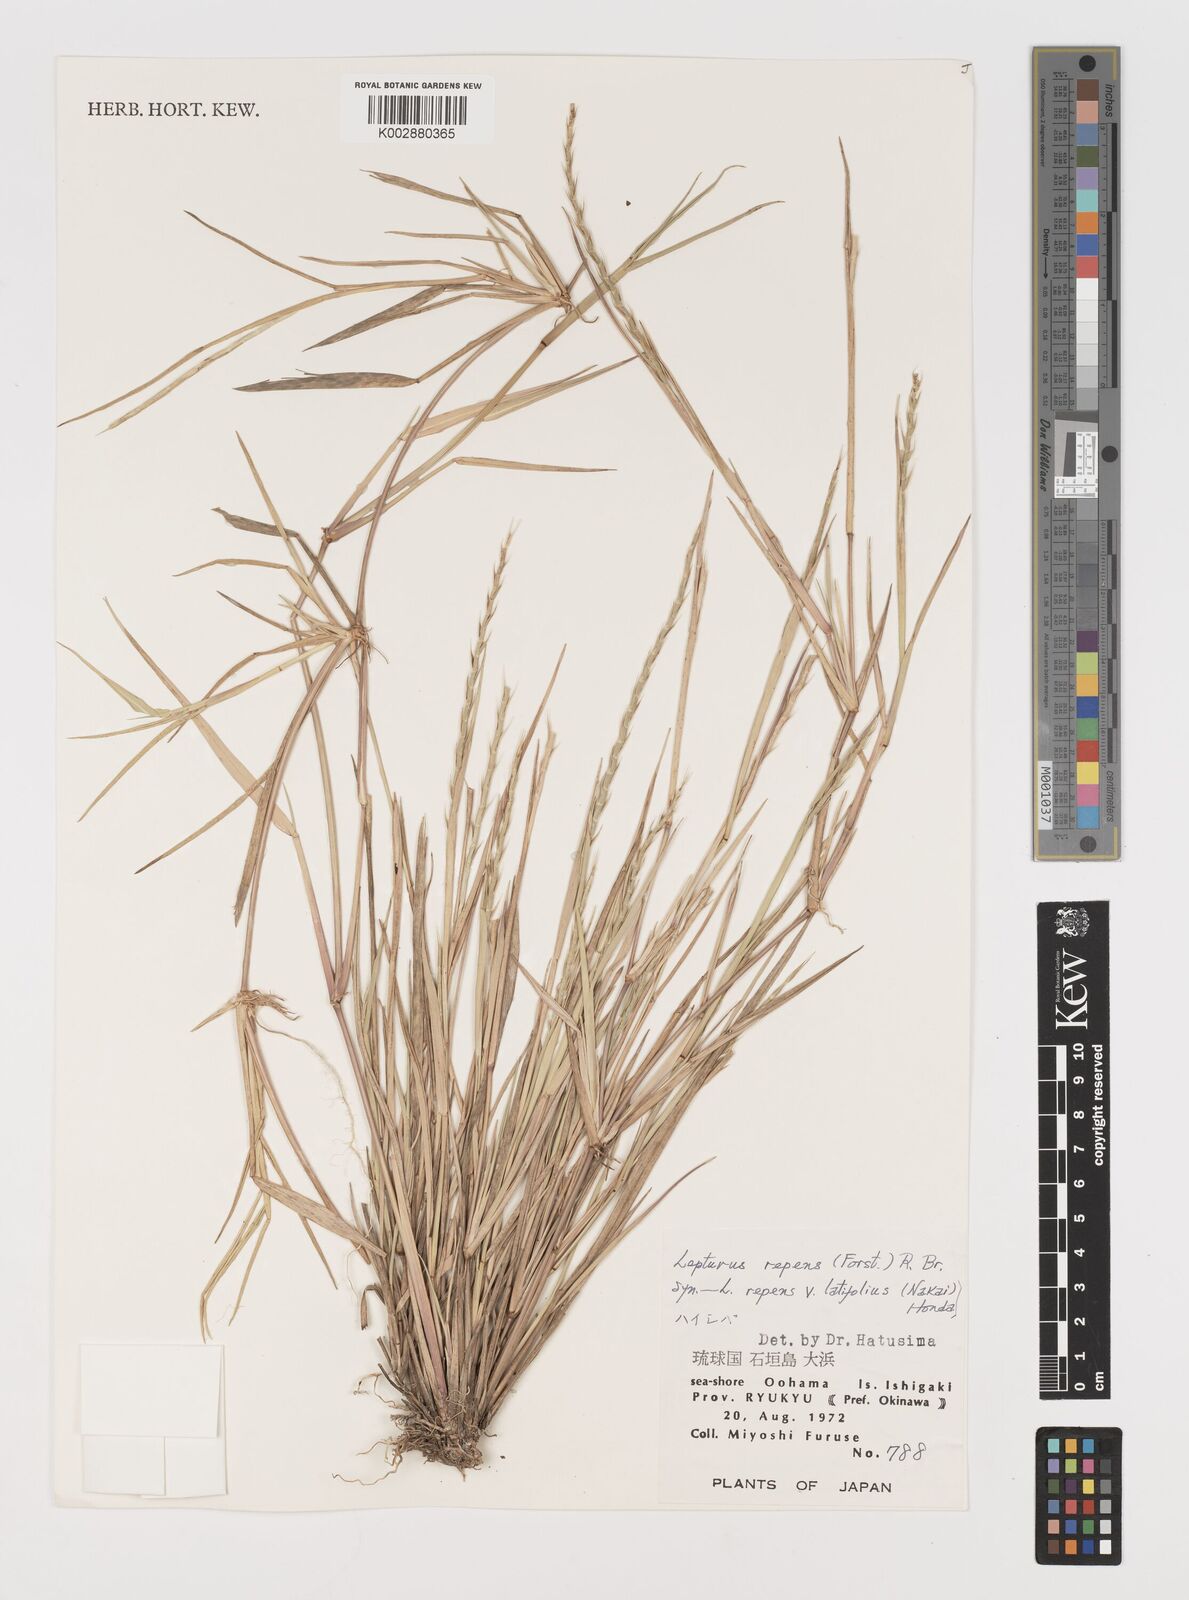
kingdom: Plantae
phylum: Tracheophyta
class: Liliopsida
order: Poales
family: Poaceae
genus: Lepturus
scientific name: Lepturus repens
